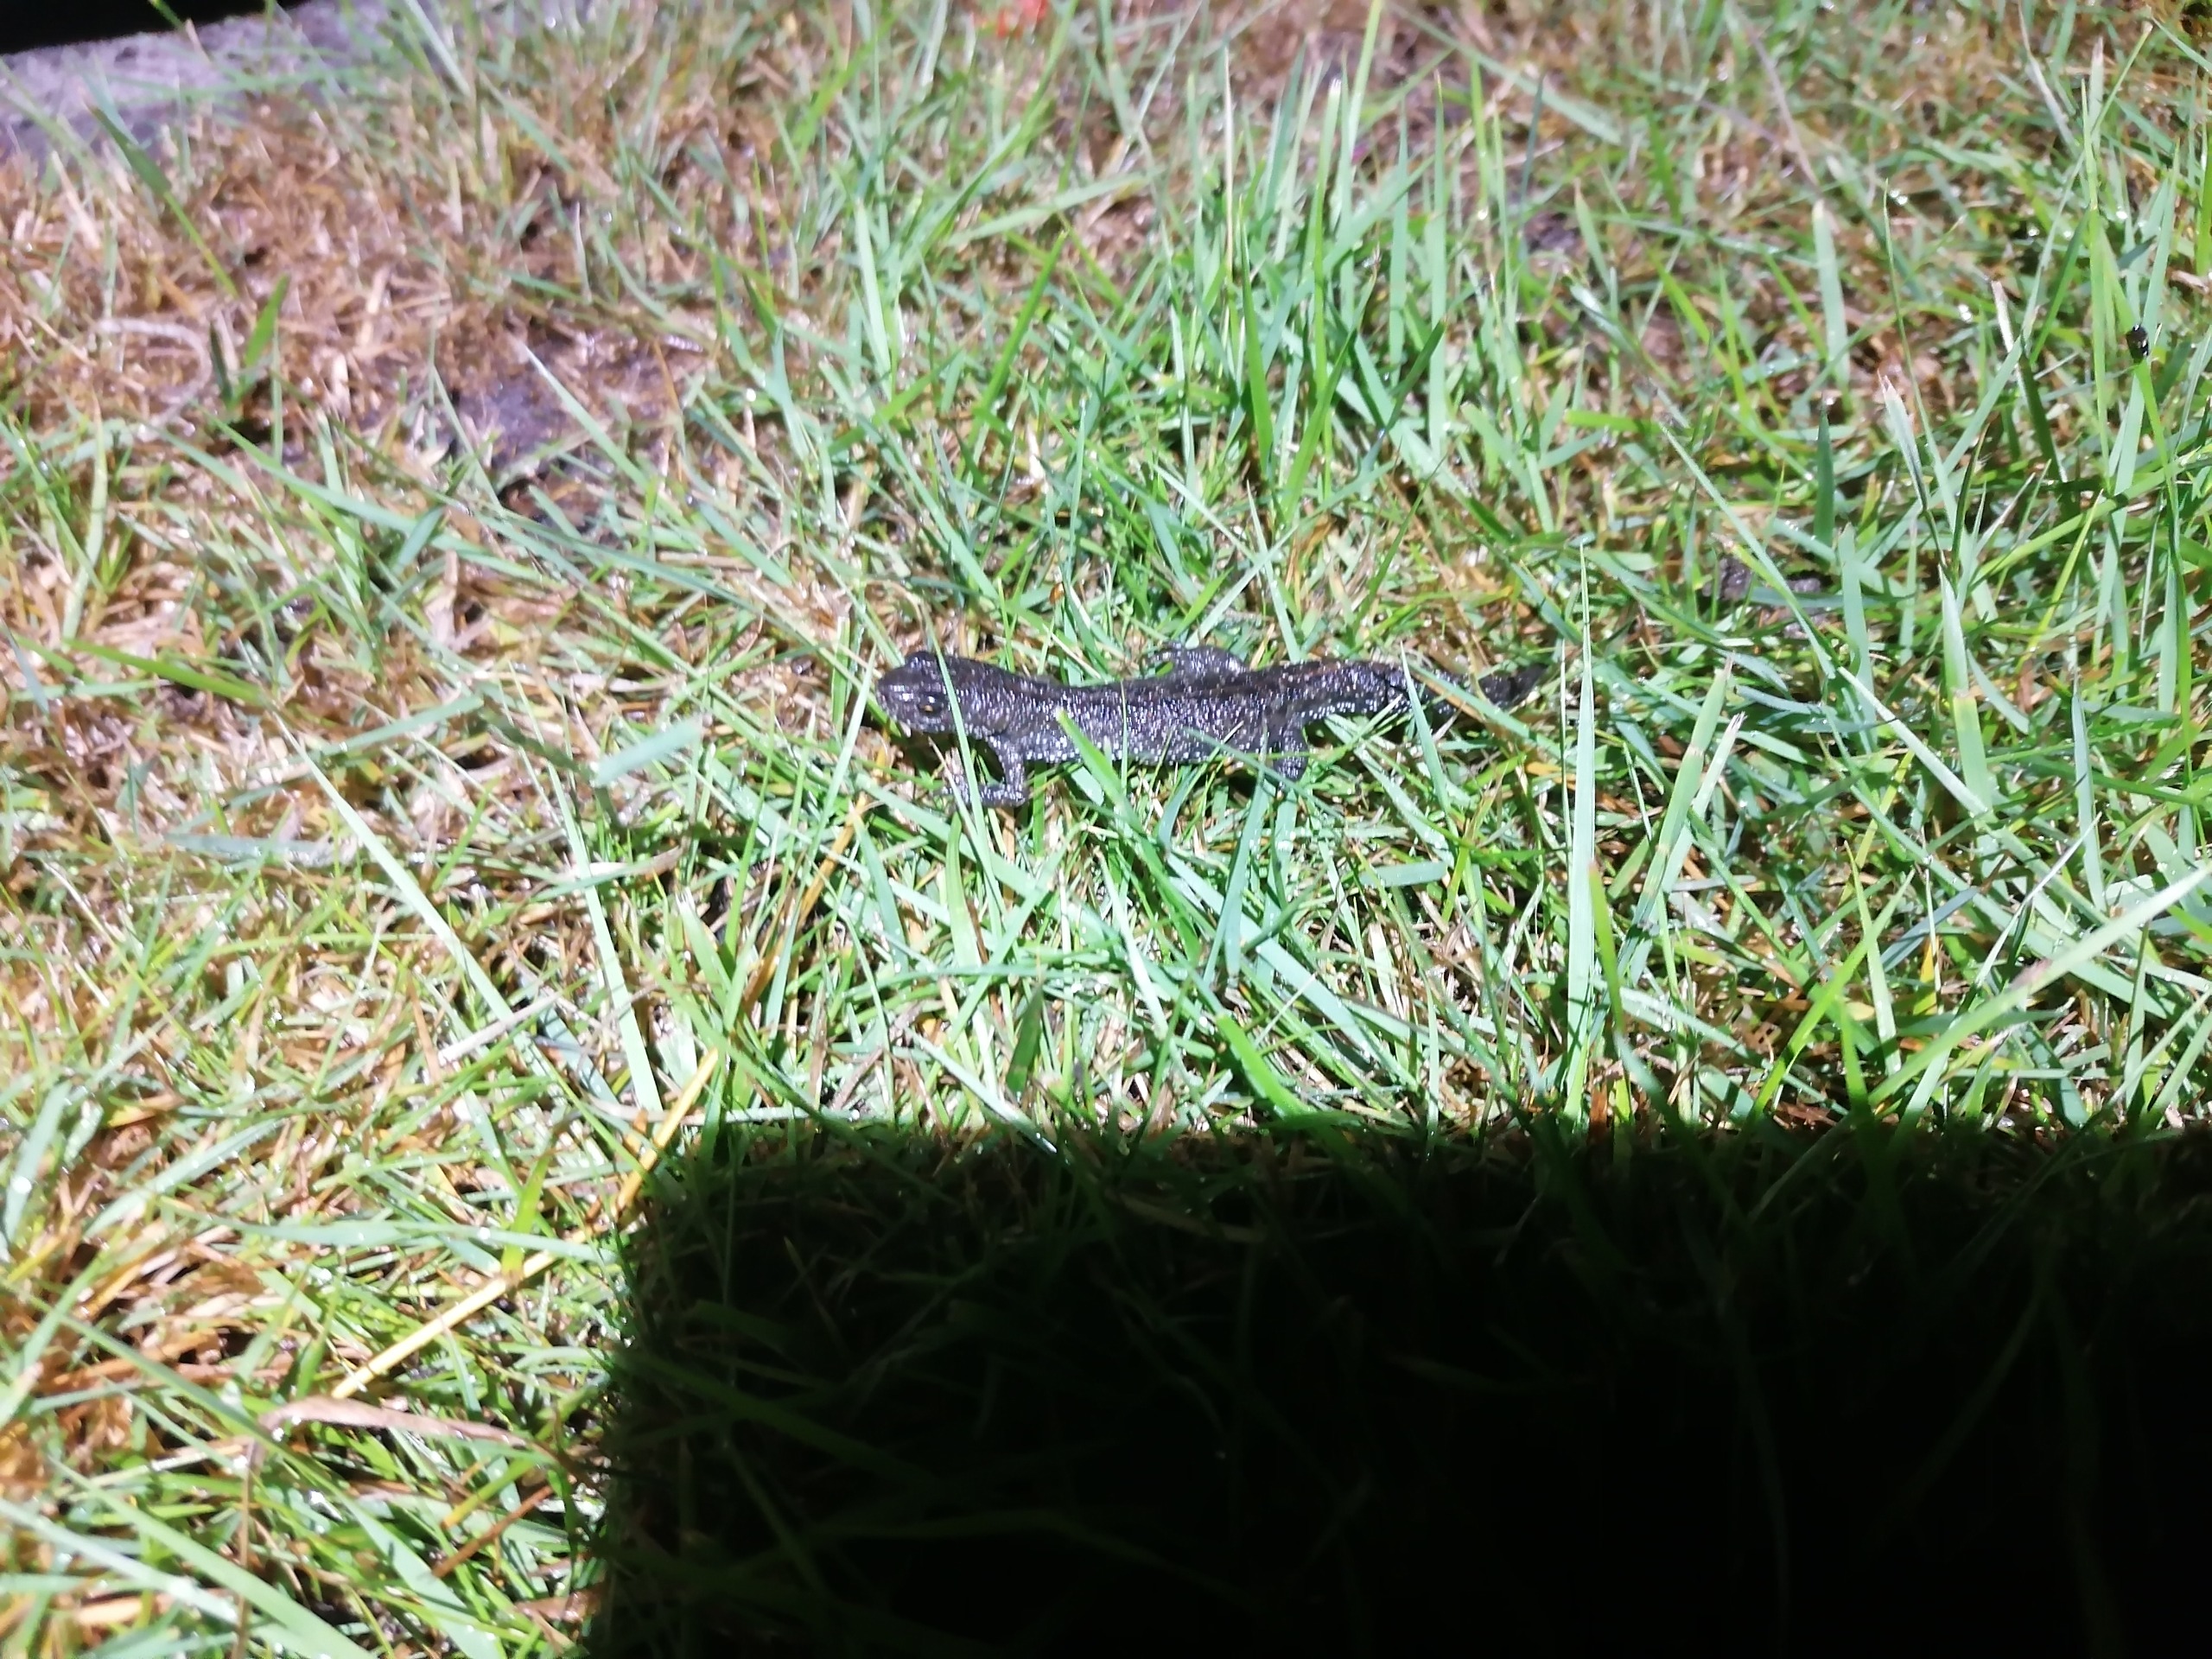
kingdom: Animalia
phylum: Chordata
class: Amphibia
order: Caudata
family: Salamandridae
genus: Triturus
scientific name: Triturus cristatus
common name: Stor vandsalamander
